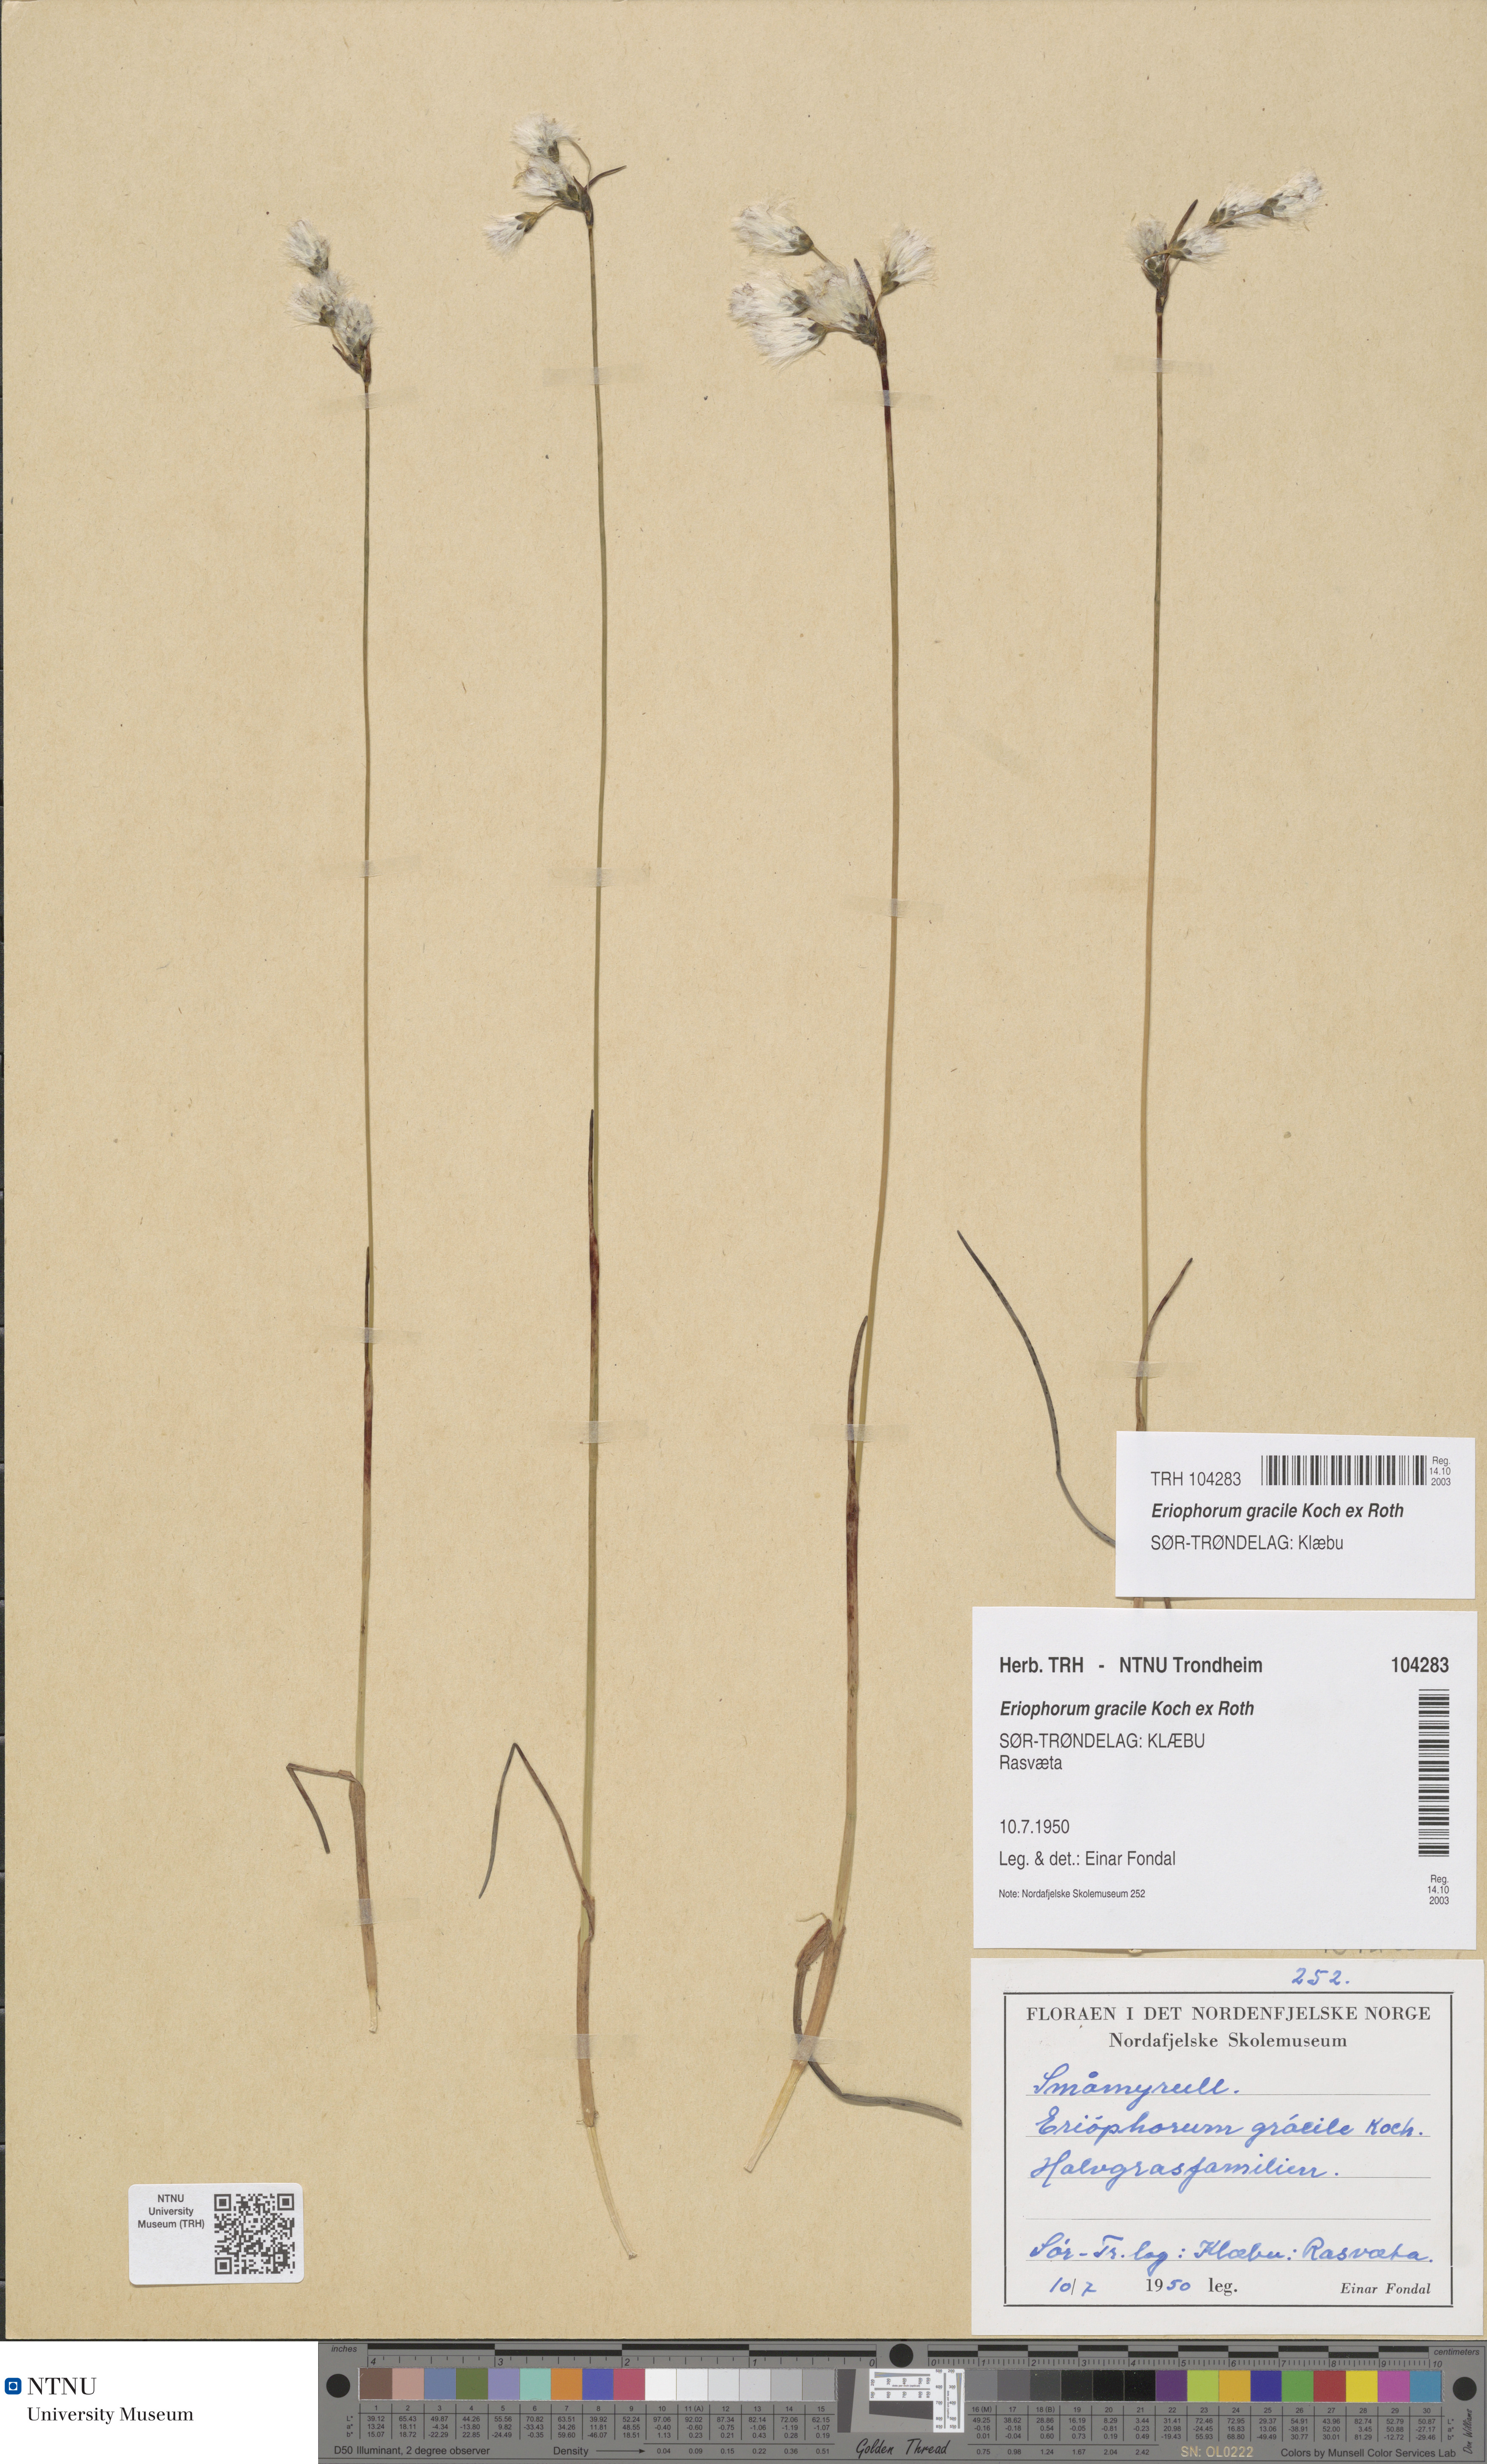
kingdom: Plantae
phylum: Tracheophyta
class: Liliopsida
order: Poales
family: Cyperaceae
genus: Eriophorum
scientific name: Eriophorum gracile
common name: Slender cottongrass
